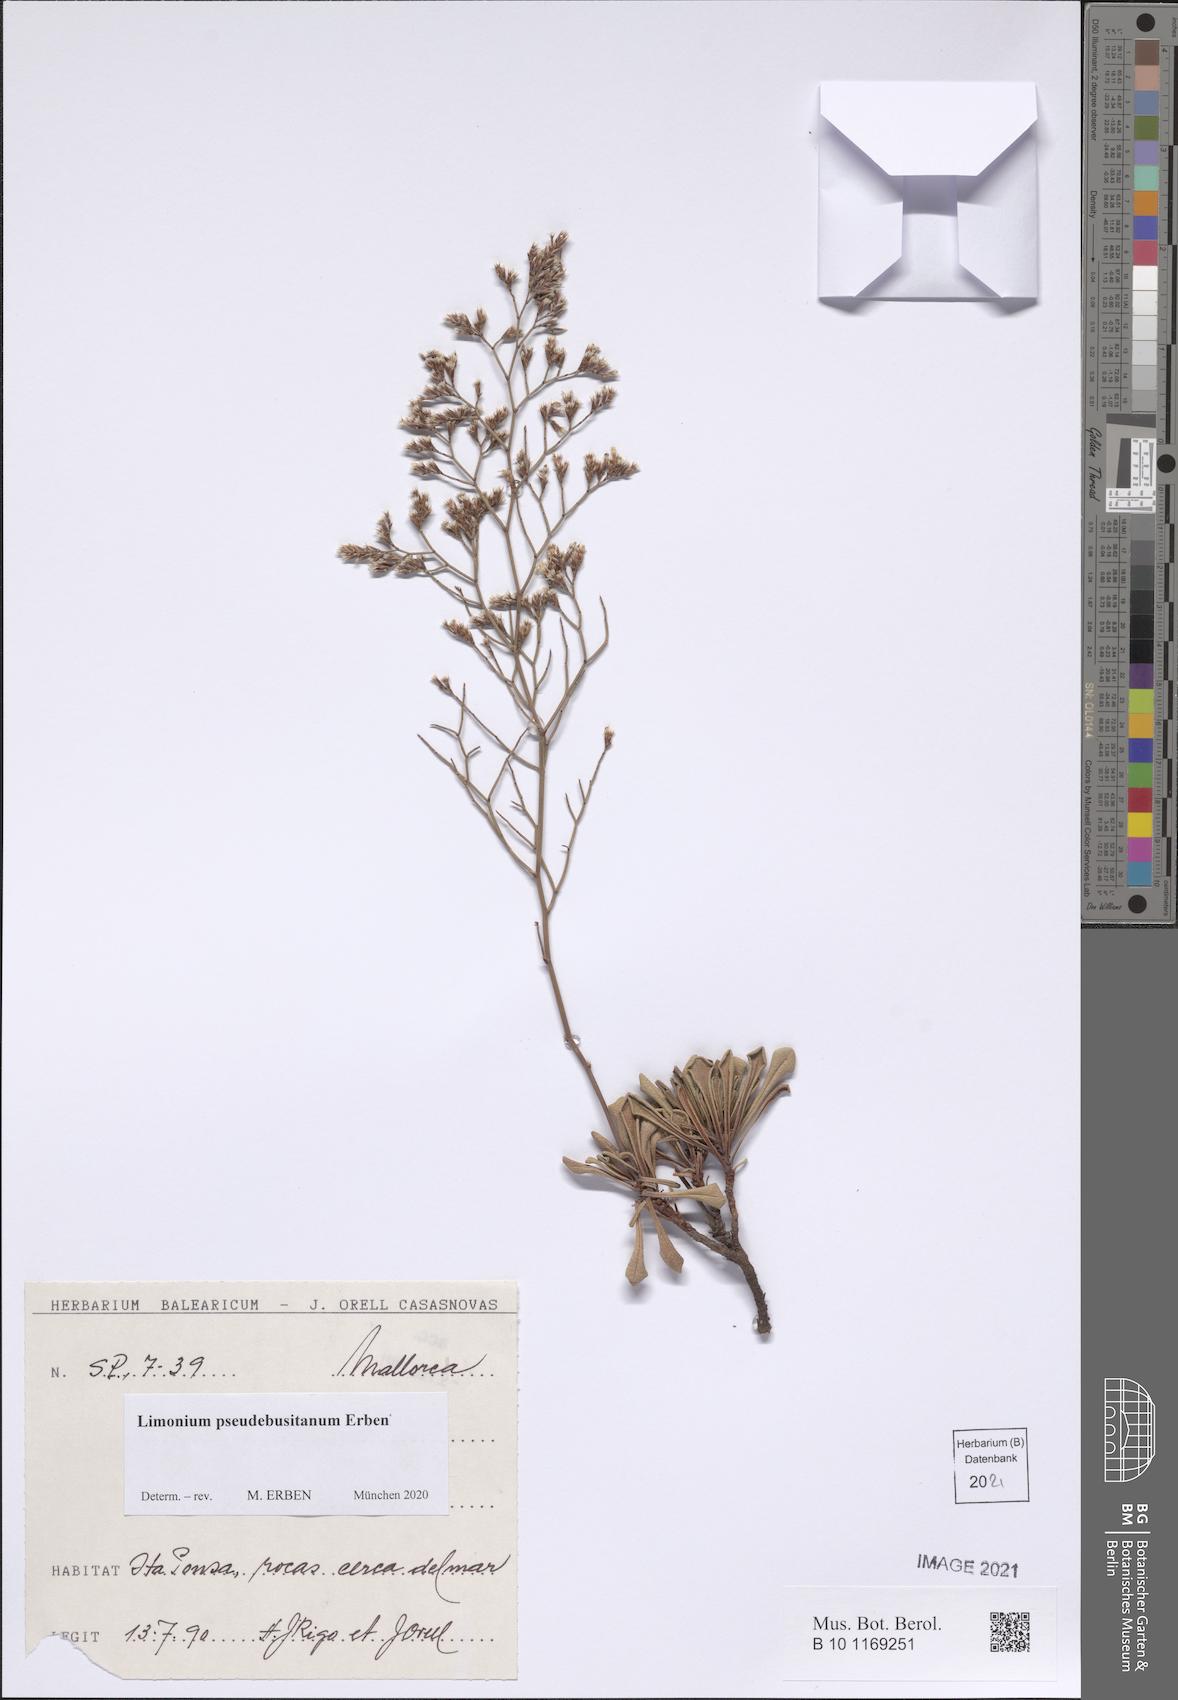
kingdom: Plantae
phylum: Tracheophyta
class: Magnoliopsida
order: Caryophyllales
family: Plumbaginaceae
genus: Limonium
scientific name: Limonium pseudebusitanum
